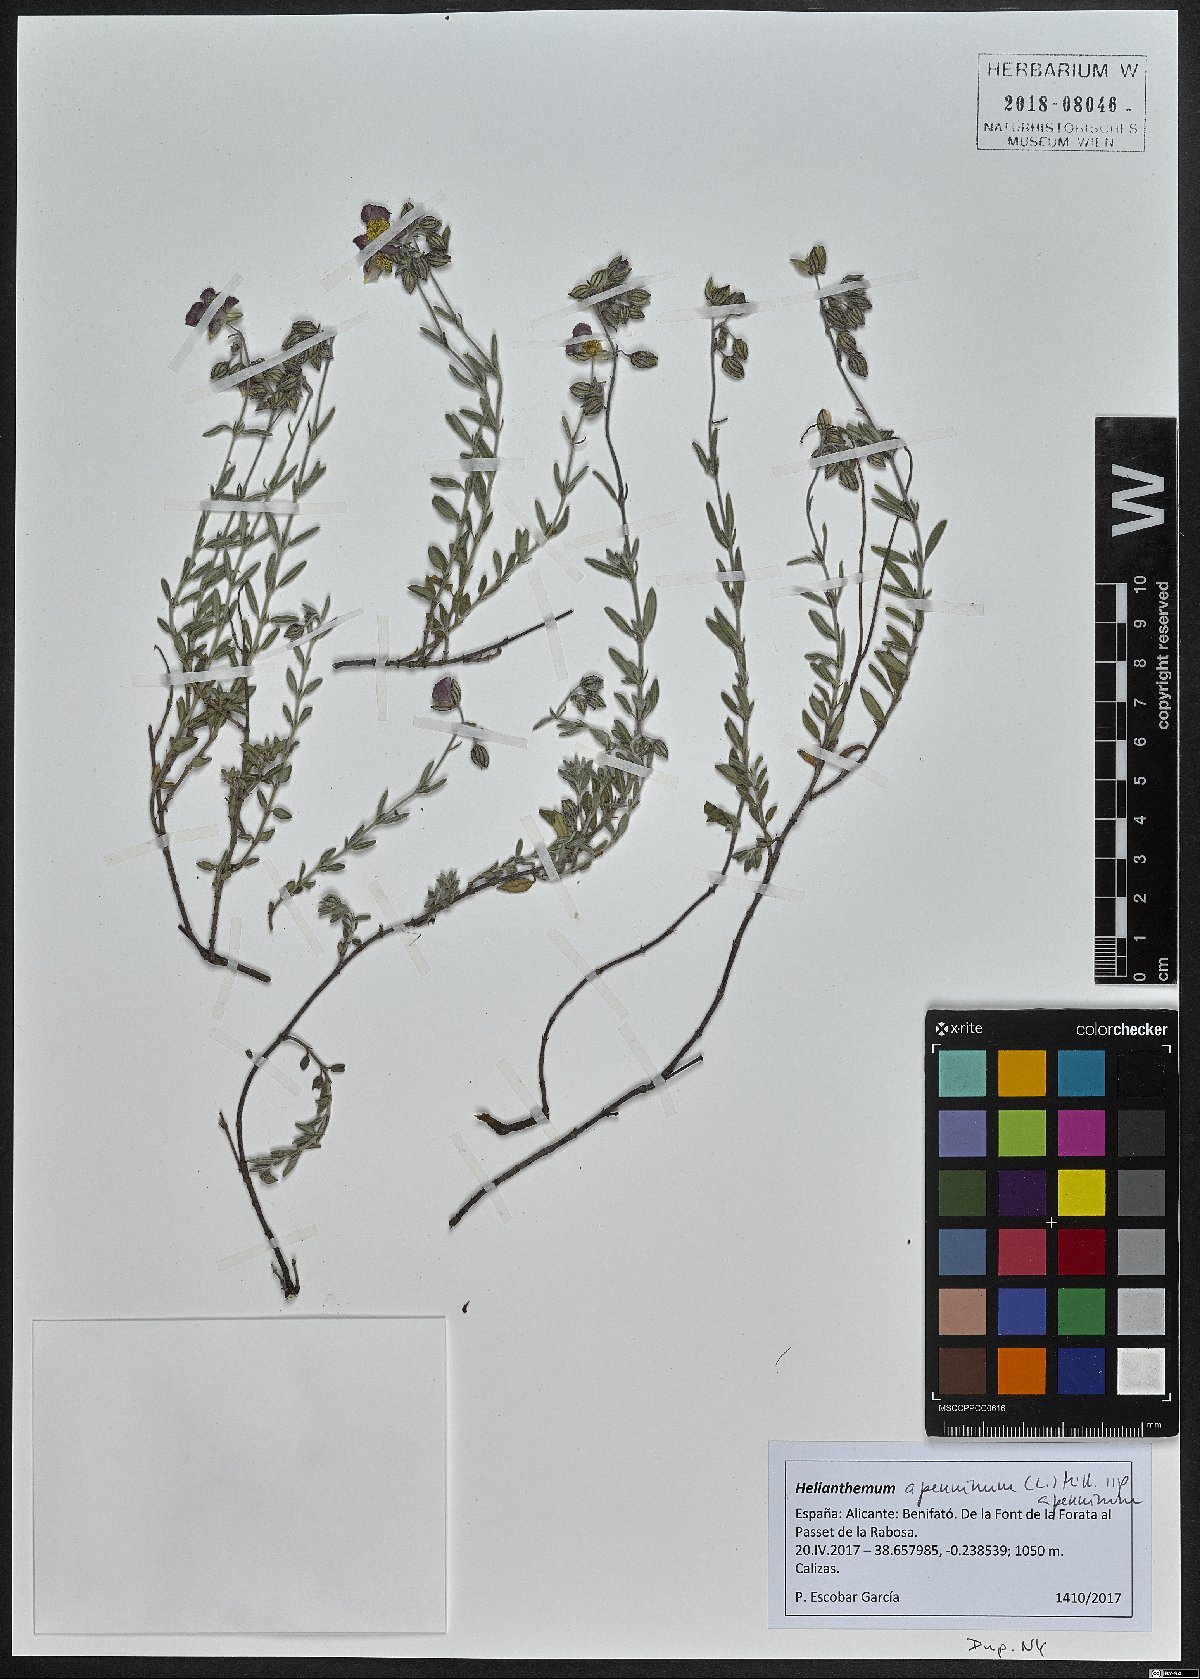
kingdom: Plantae
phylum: Tracheophyta
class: Magnoliopsida
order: Malvales
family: Cistaceae
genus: Helianthemum
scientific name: Helianthemum apenninum
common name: White rock-rose
